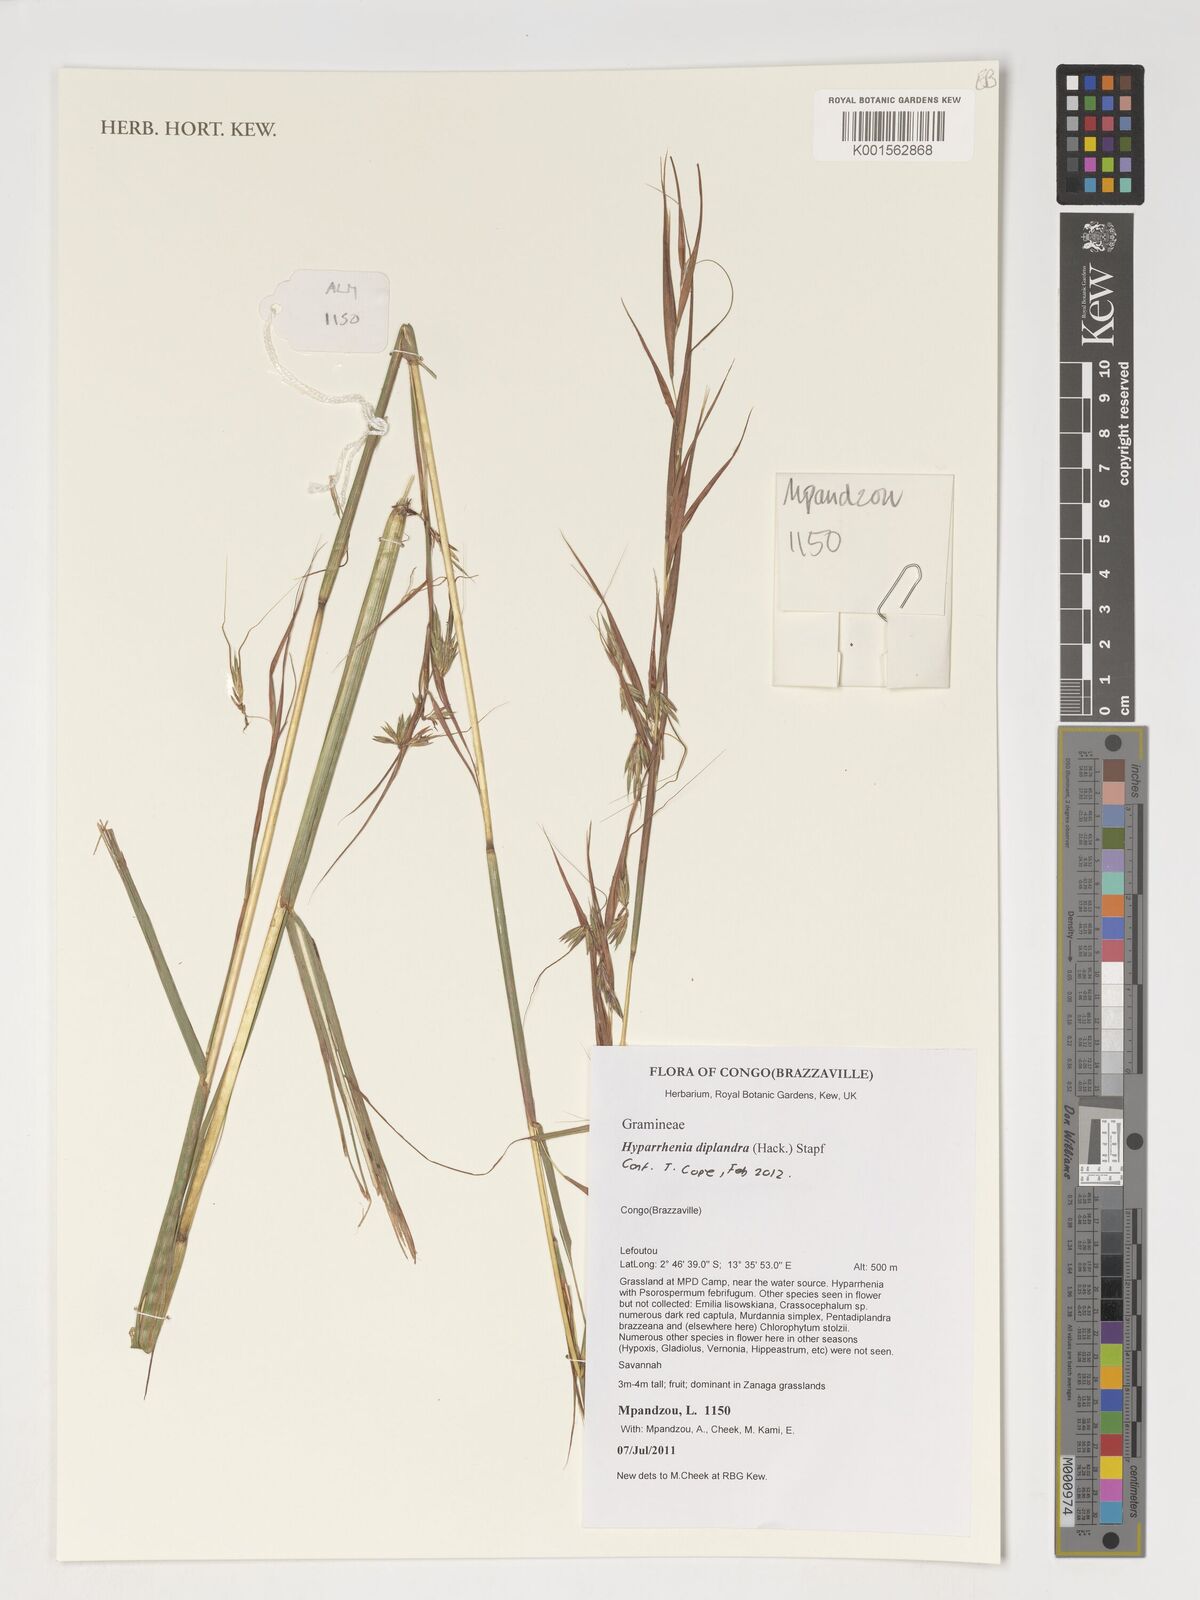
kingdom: Plantae
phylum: Tracheophyta
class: Liliopsida
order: Poales
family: Poaceae
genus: Hyparrhenia
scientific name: Hyparrhenia diplandra
